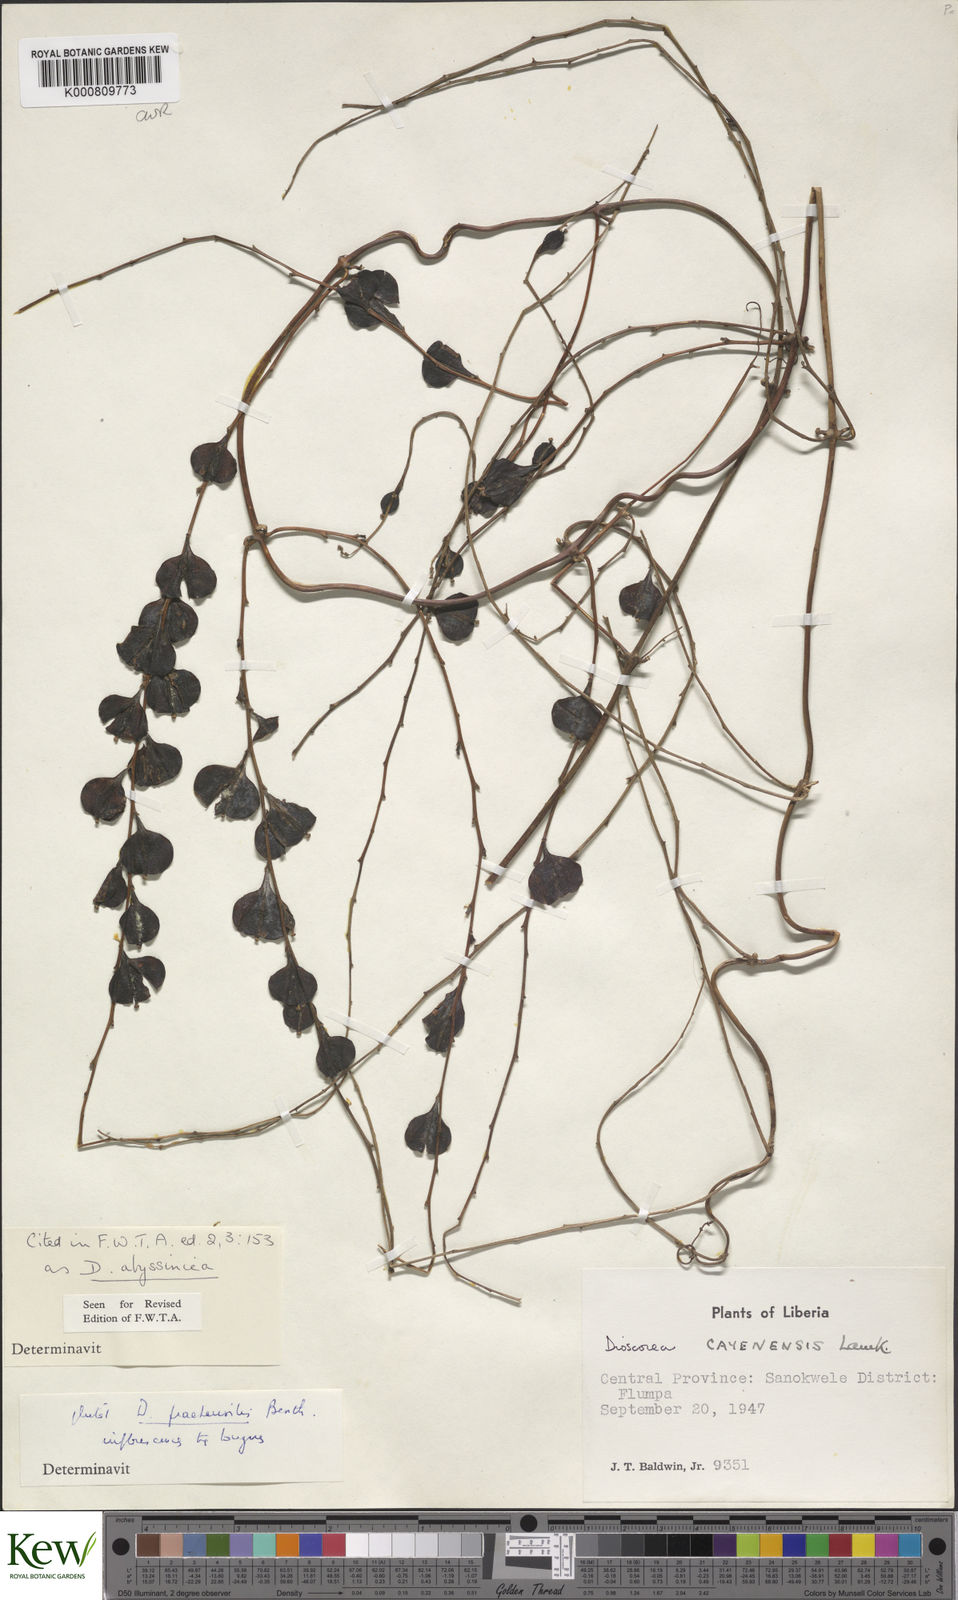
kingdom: Plantae
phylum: Tracheophyta
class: Liliopsida
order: Dioscoreales
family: Dioscoreaceae
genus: Dioscorea
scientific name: Dioscorea abyssinica
